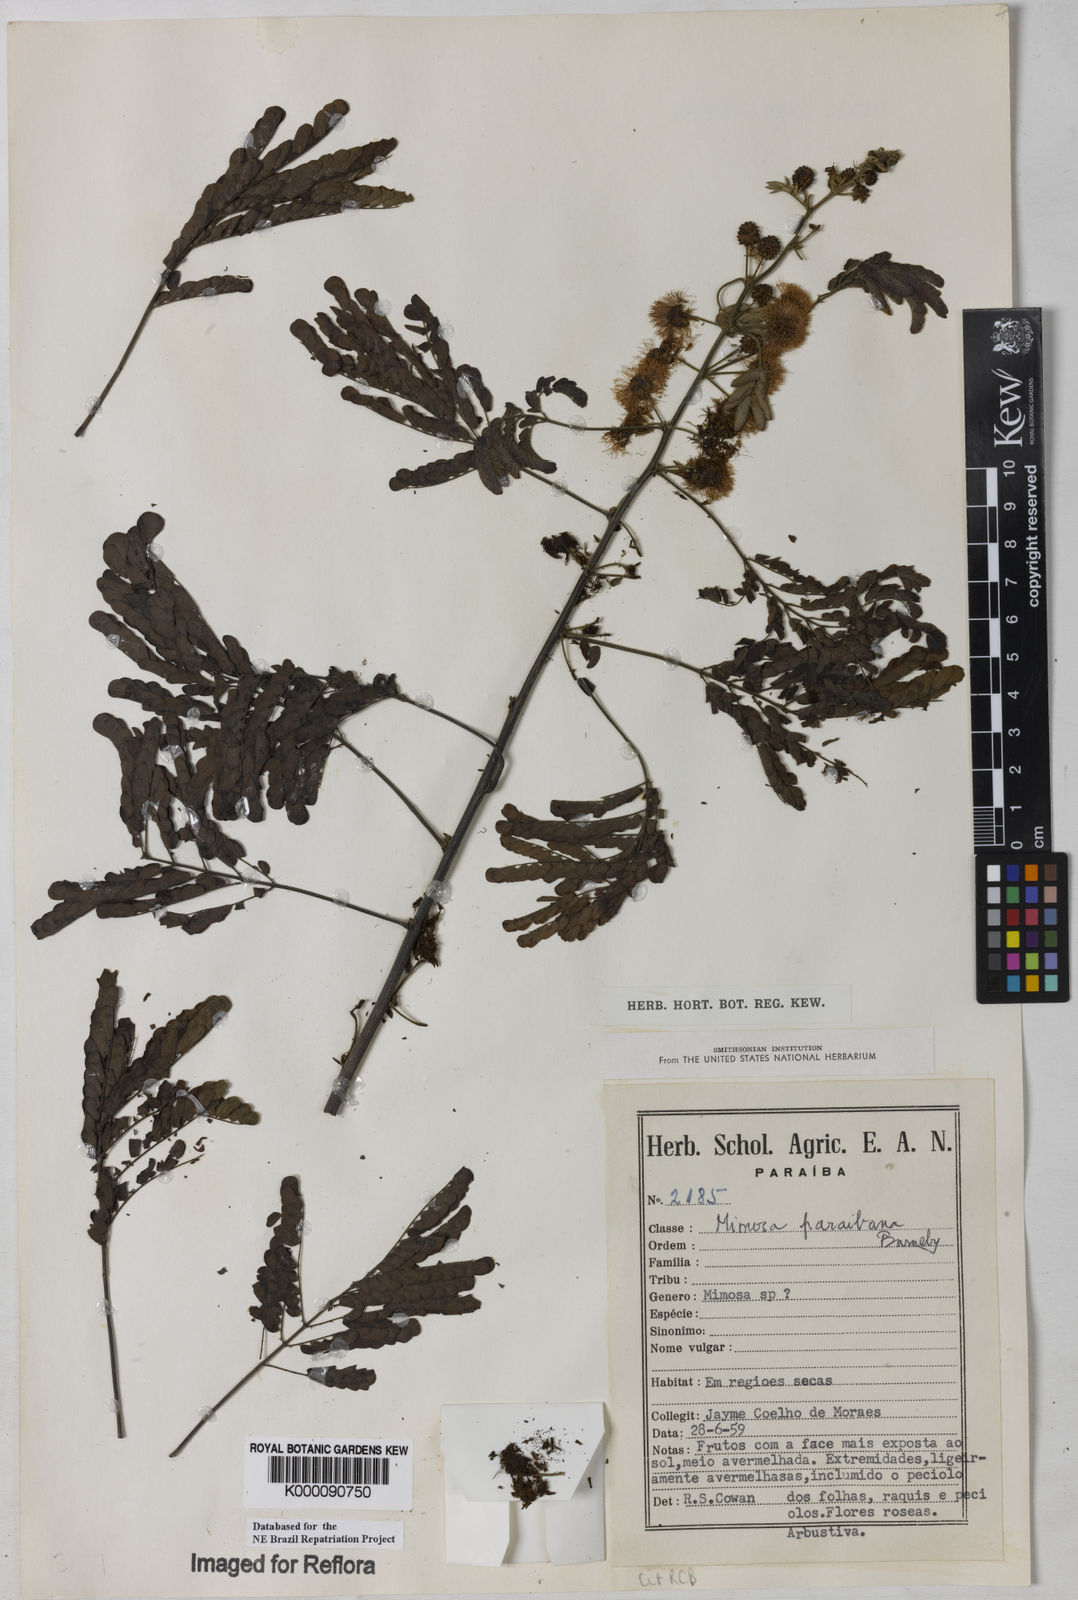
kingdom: Plantae
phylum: Tracheophyta
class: Magnoliopsida
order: Fabales
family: Fabaceae
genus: Mimosa
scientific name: Mimosa paraibana
